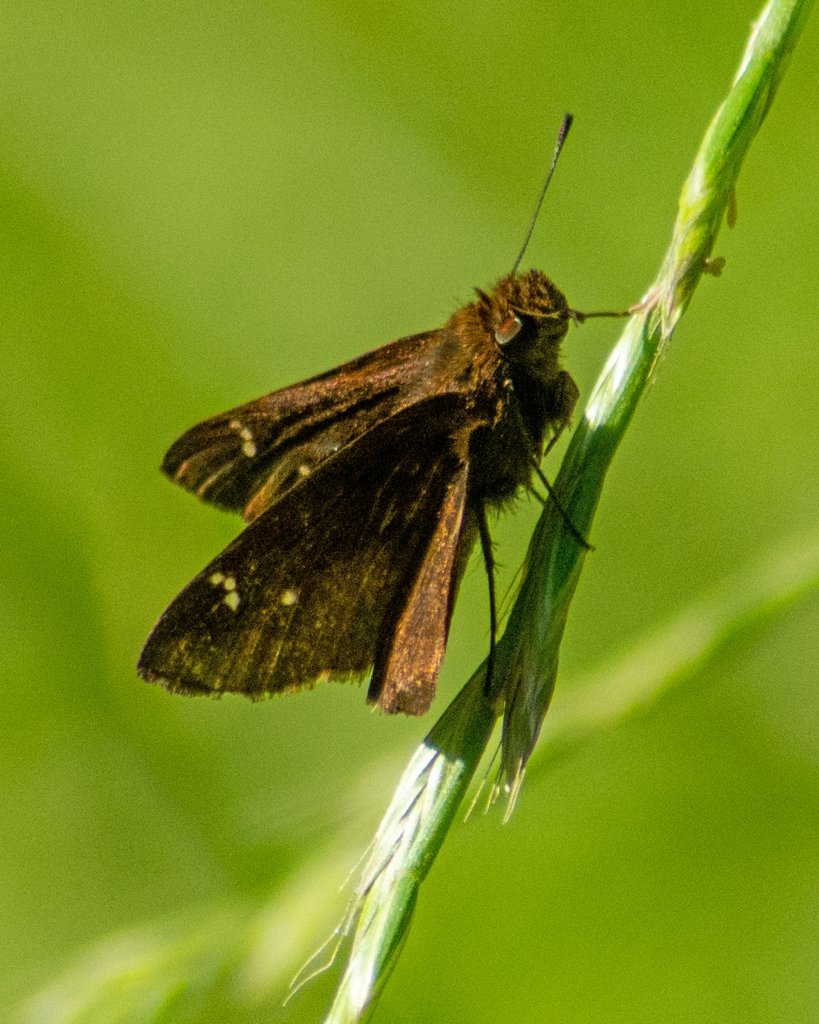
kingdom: Animalia
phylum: Arthropoda
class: Insecta
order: Lepidoptera
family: Hesperiidae
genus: Lerema
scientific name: Lerema accius
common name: Clouded Skipper
